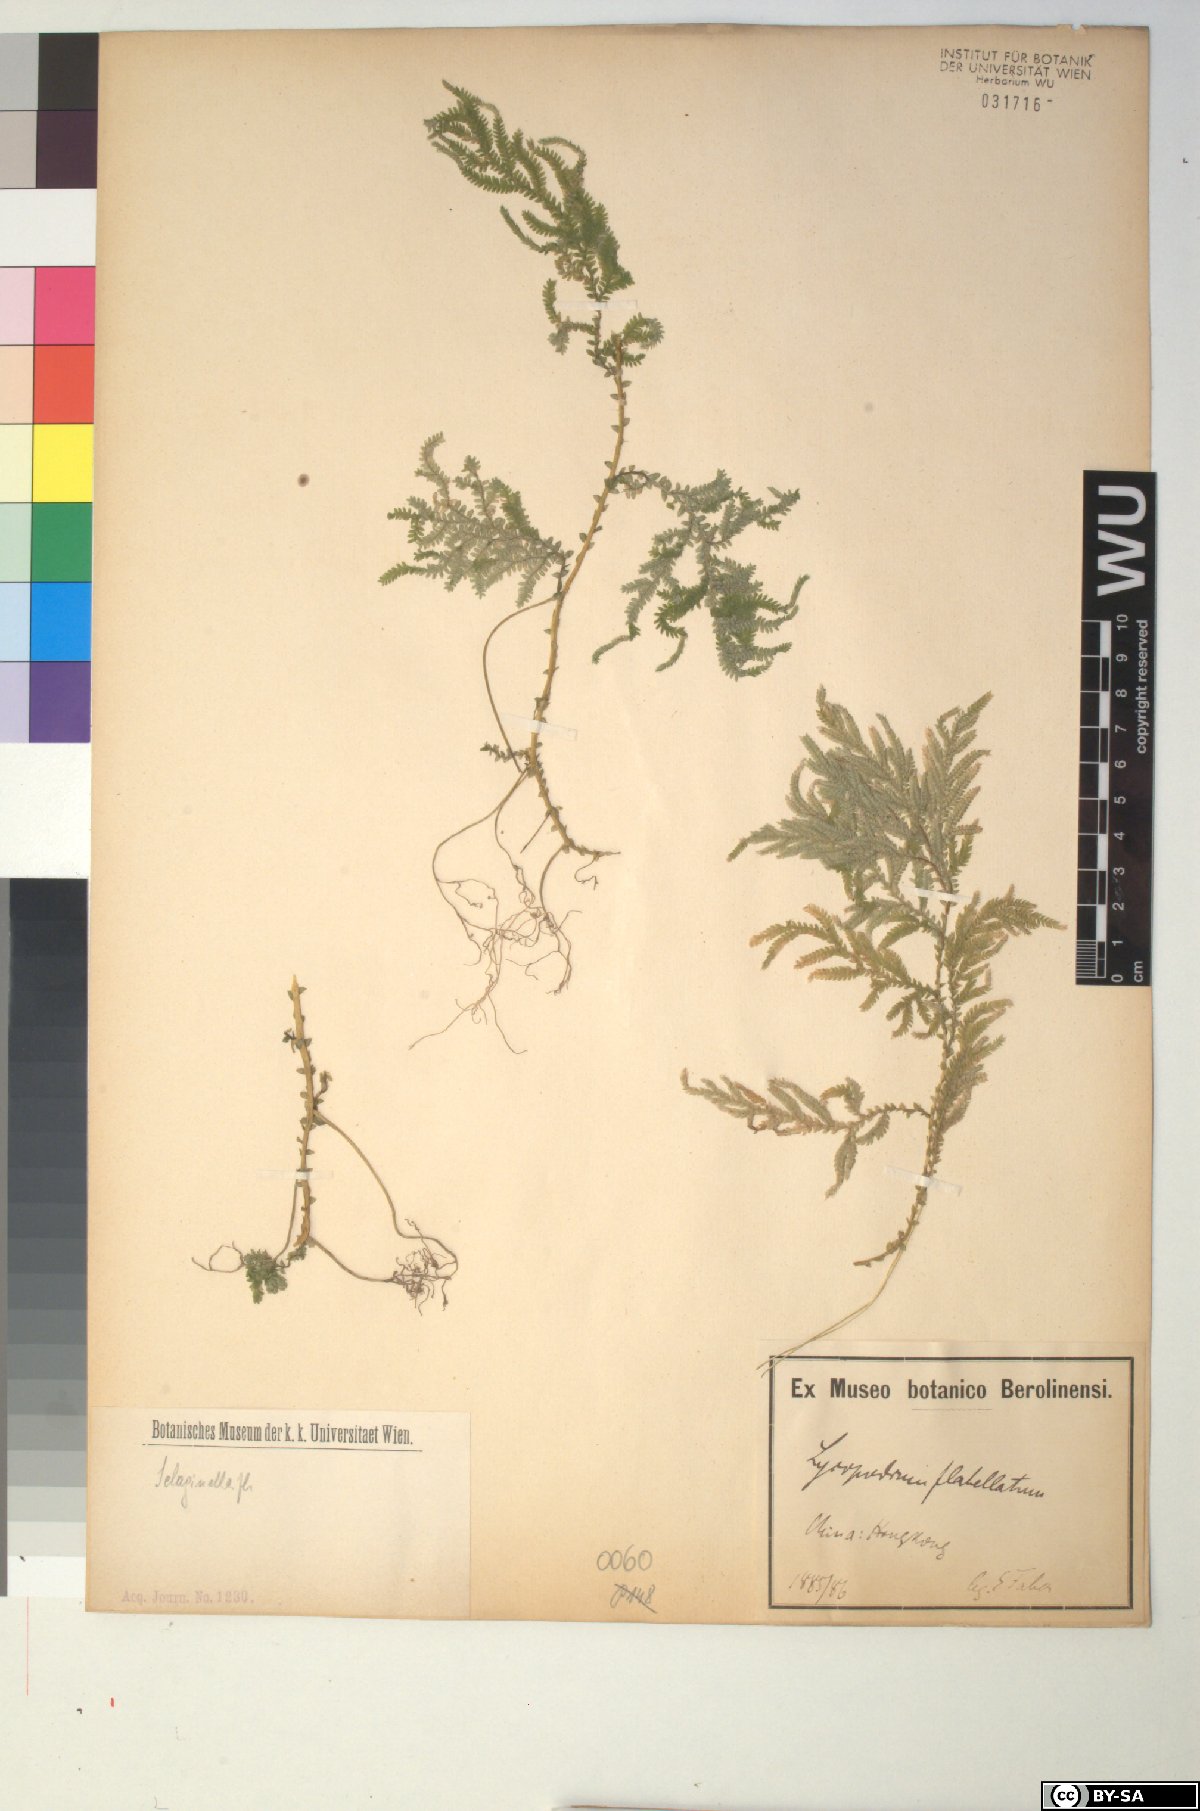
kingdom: Plantae
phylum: Tracheophyta
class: Lycopodiopsida
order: Selaginellales
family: Selaginellaceae
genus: Selaginella
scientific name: Selaginella flabellata
